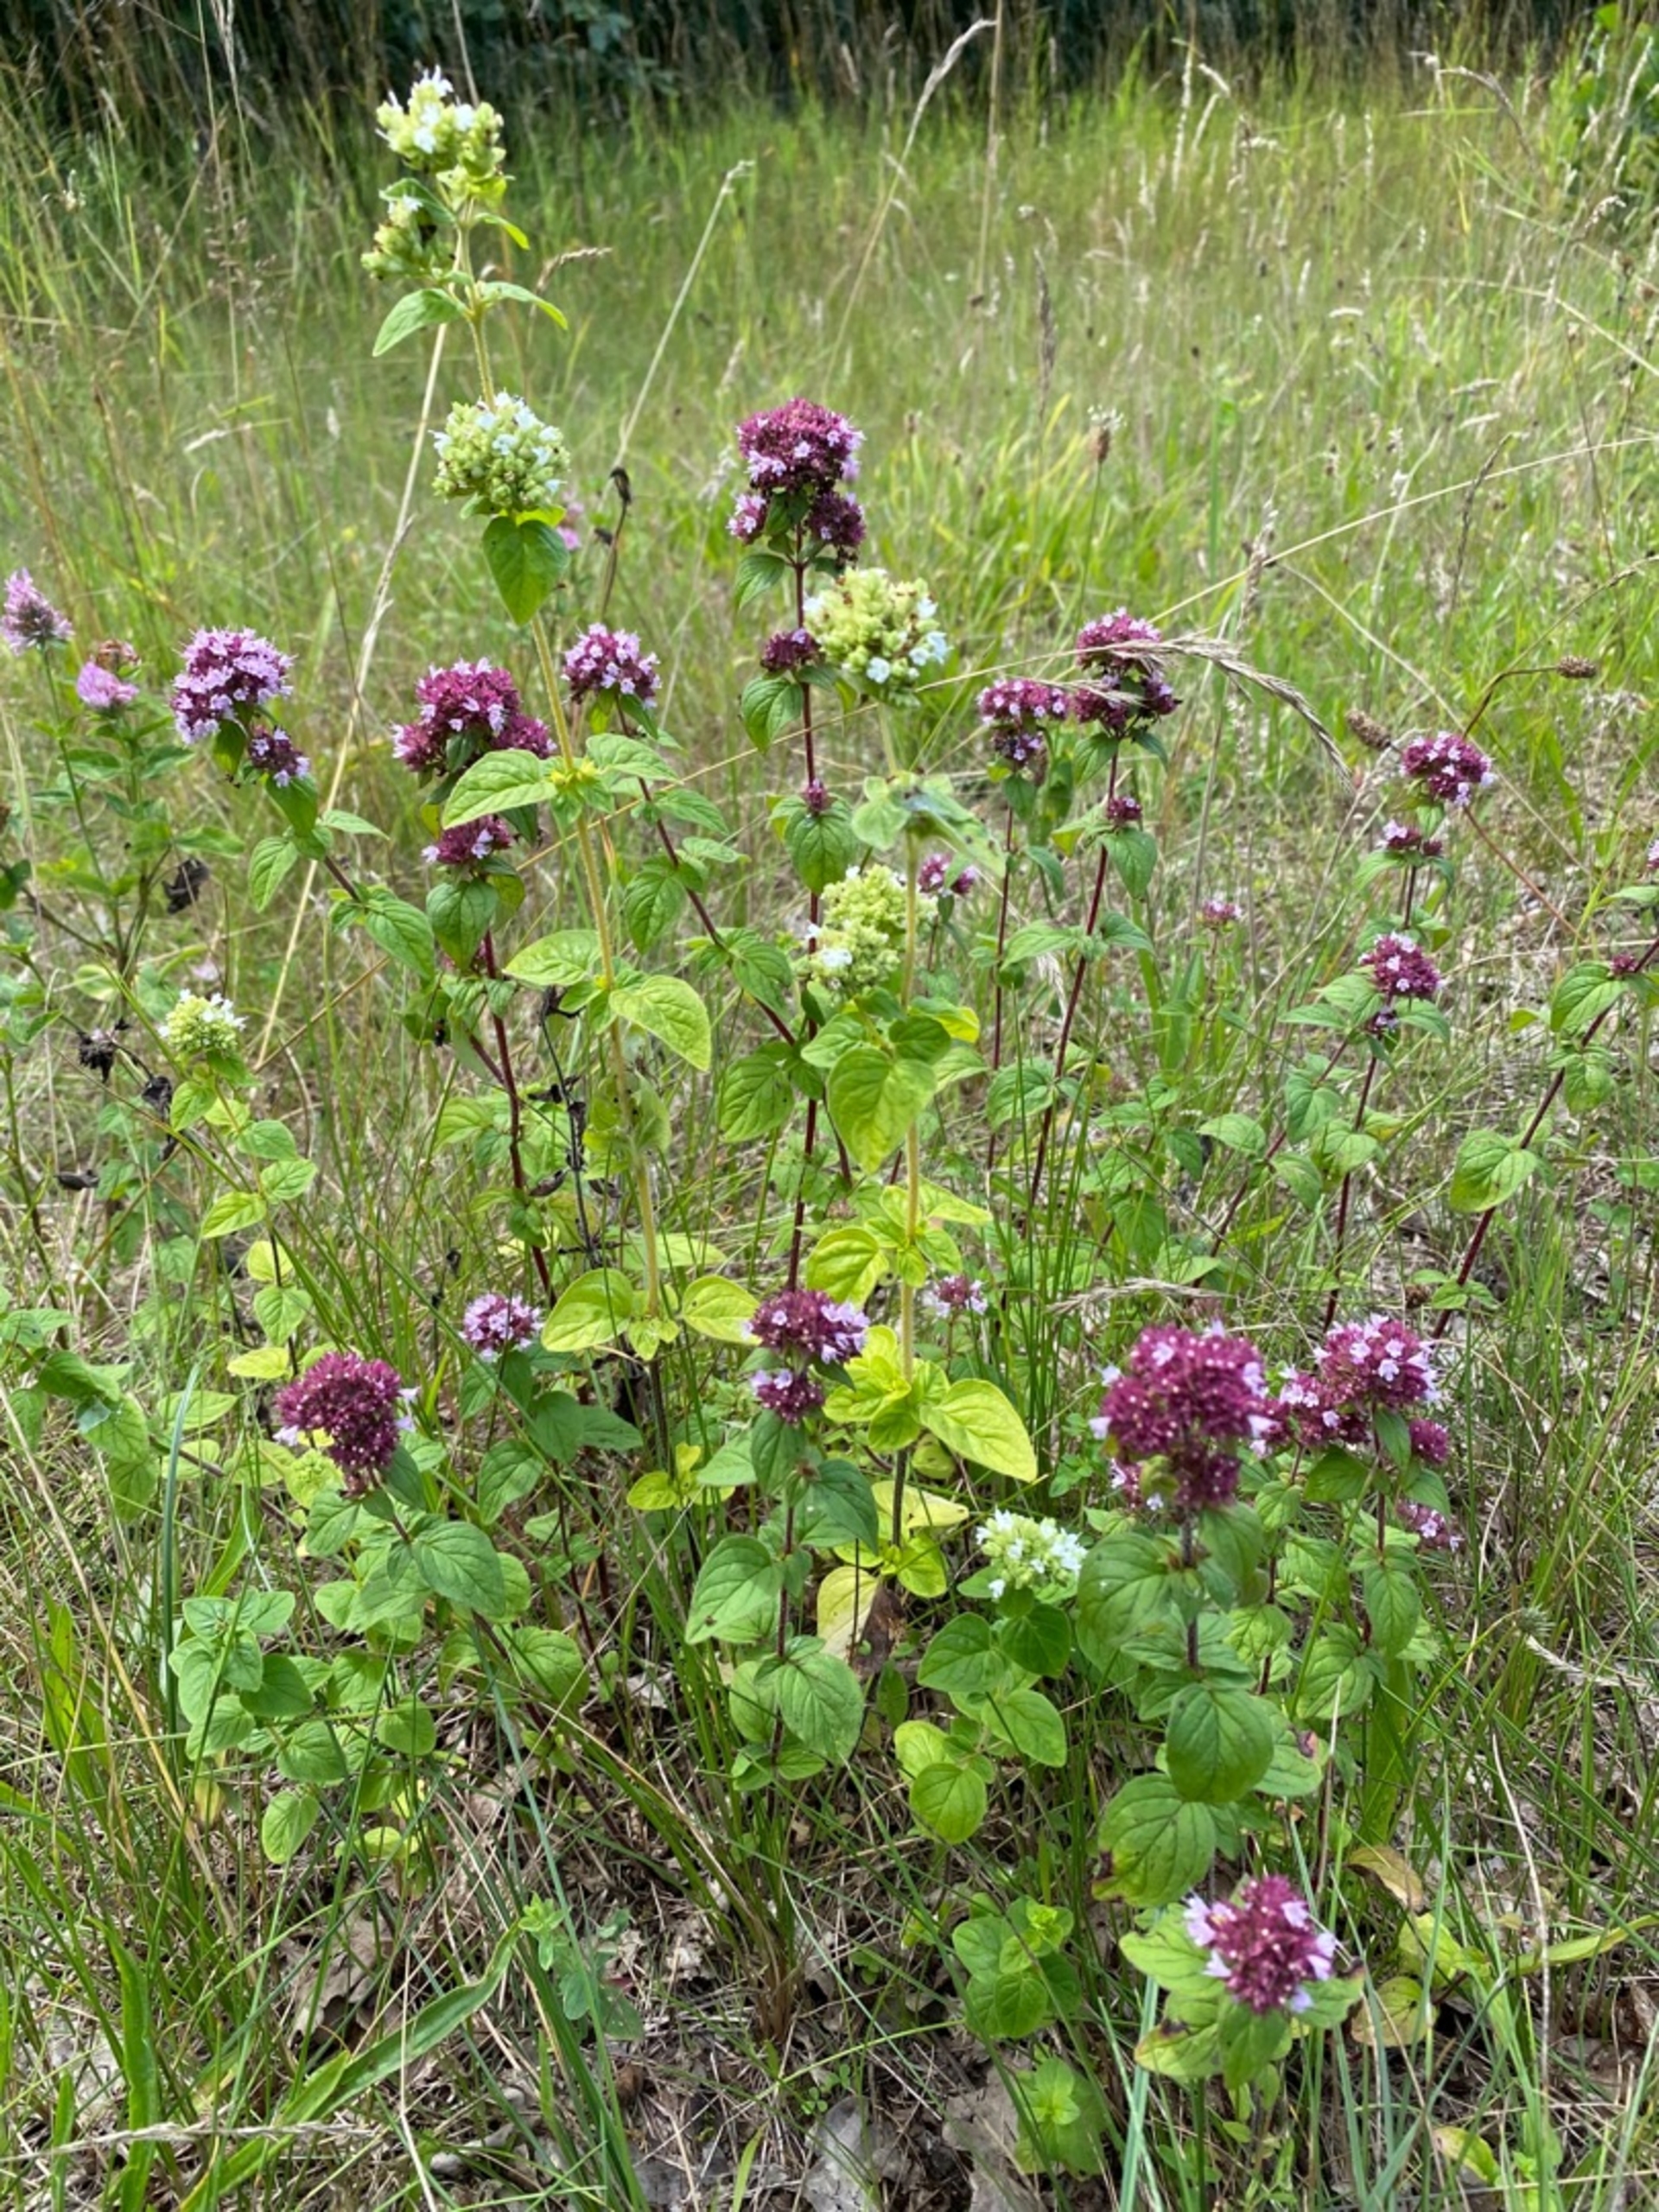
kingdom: Plantae
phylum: Tracheophyta
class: Magnoliopsida
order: Lamiales
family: Lamiaceae
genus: Origanum
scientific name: Origanum vulgare
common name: Merian
